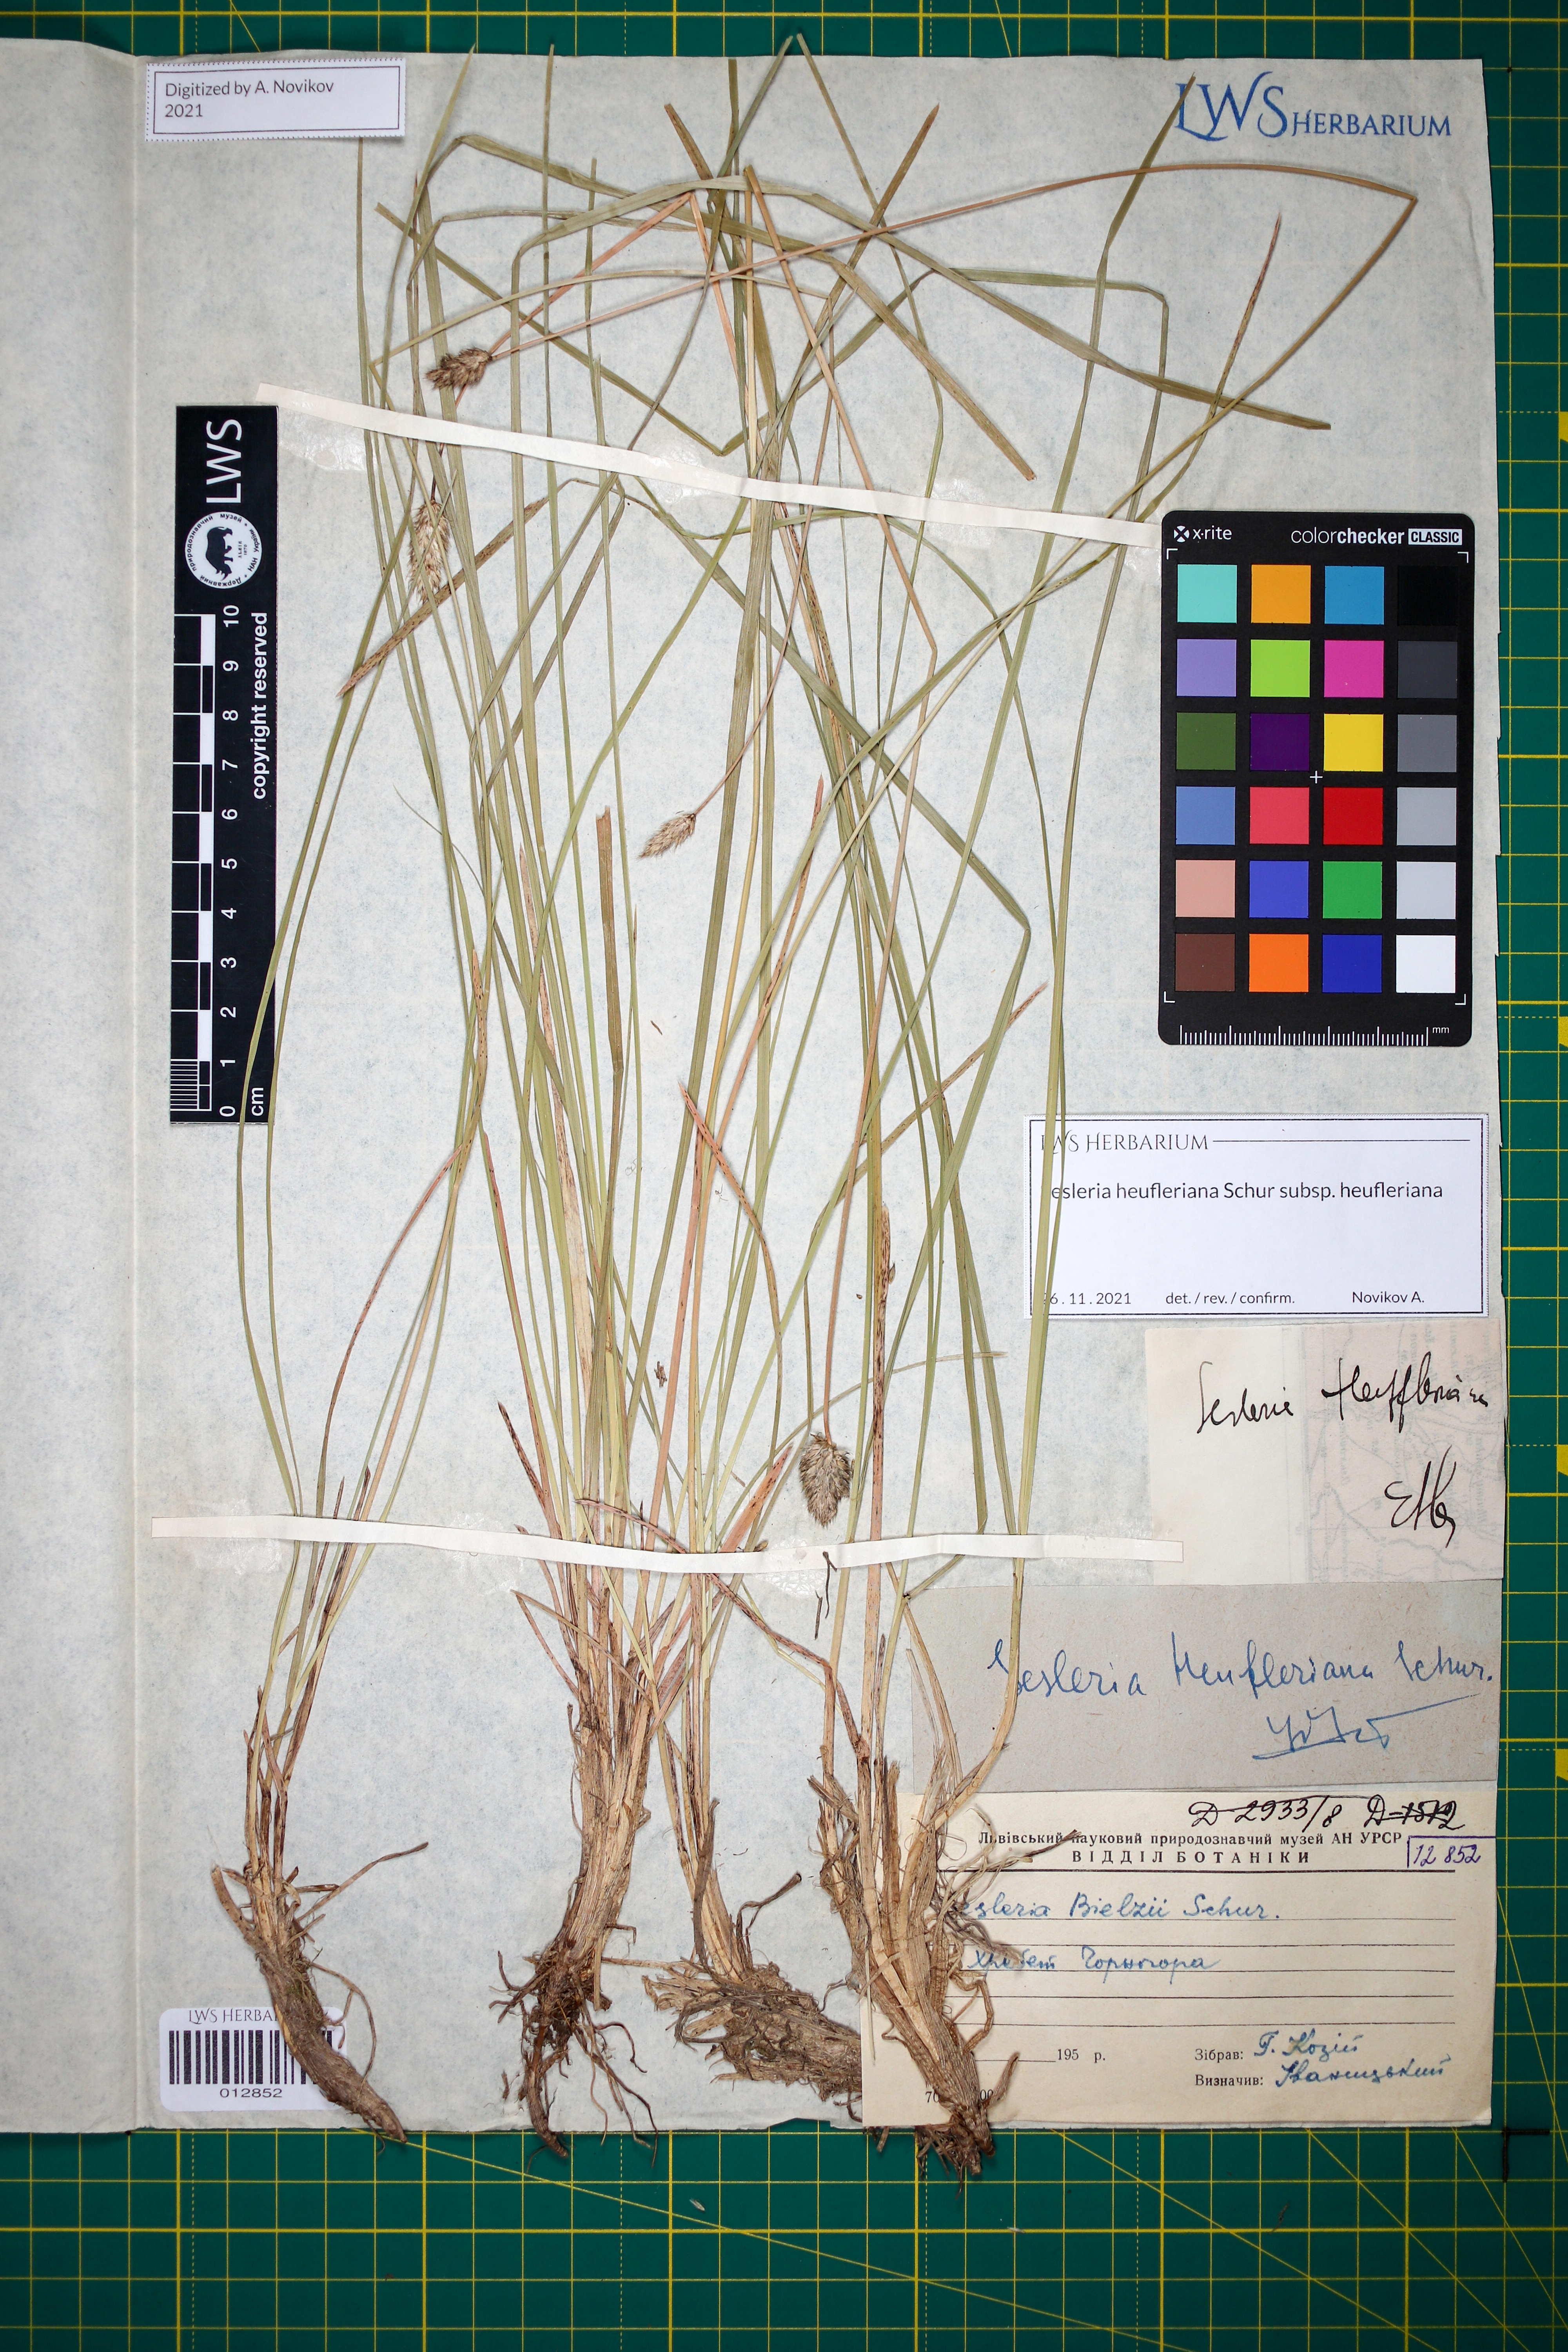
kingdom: Plantae
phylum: Tracheophyta
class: Liliopsida
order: Poales
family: Poaceae
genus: Sesleria
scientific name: Sesleria heufleriana
